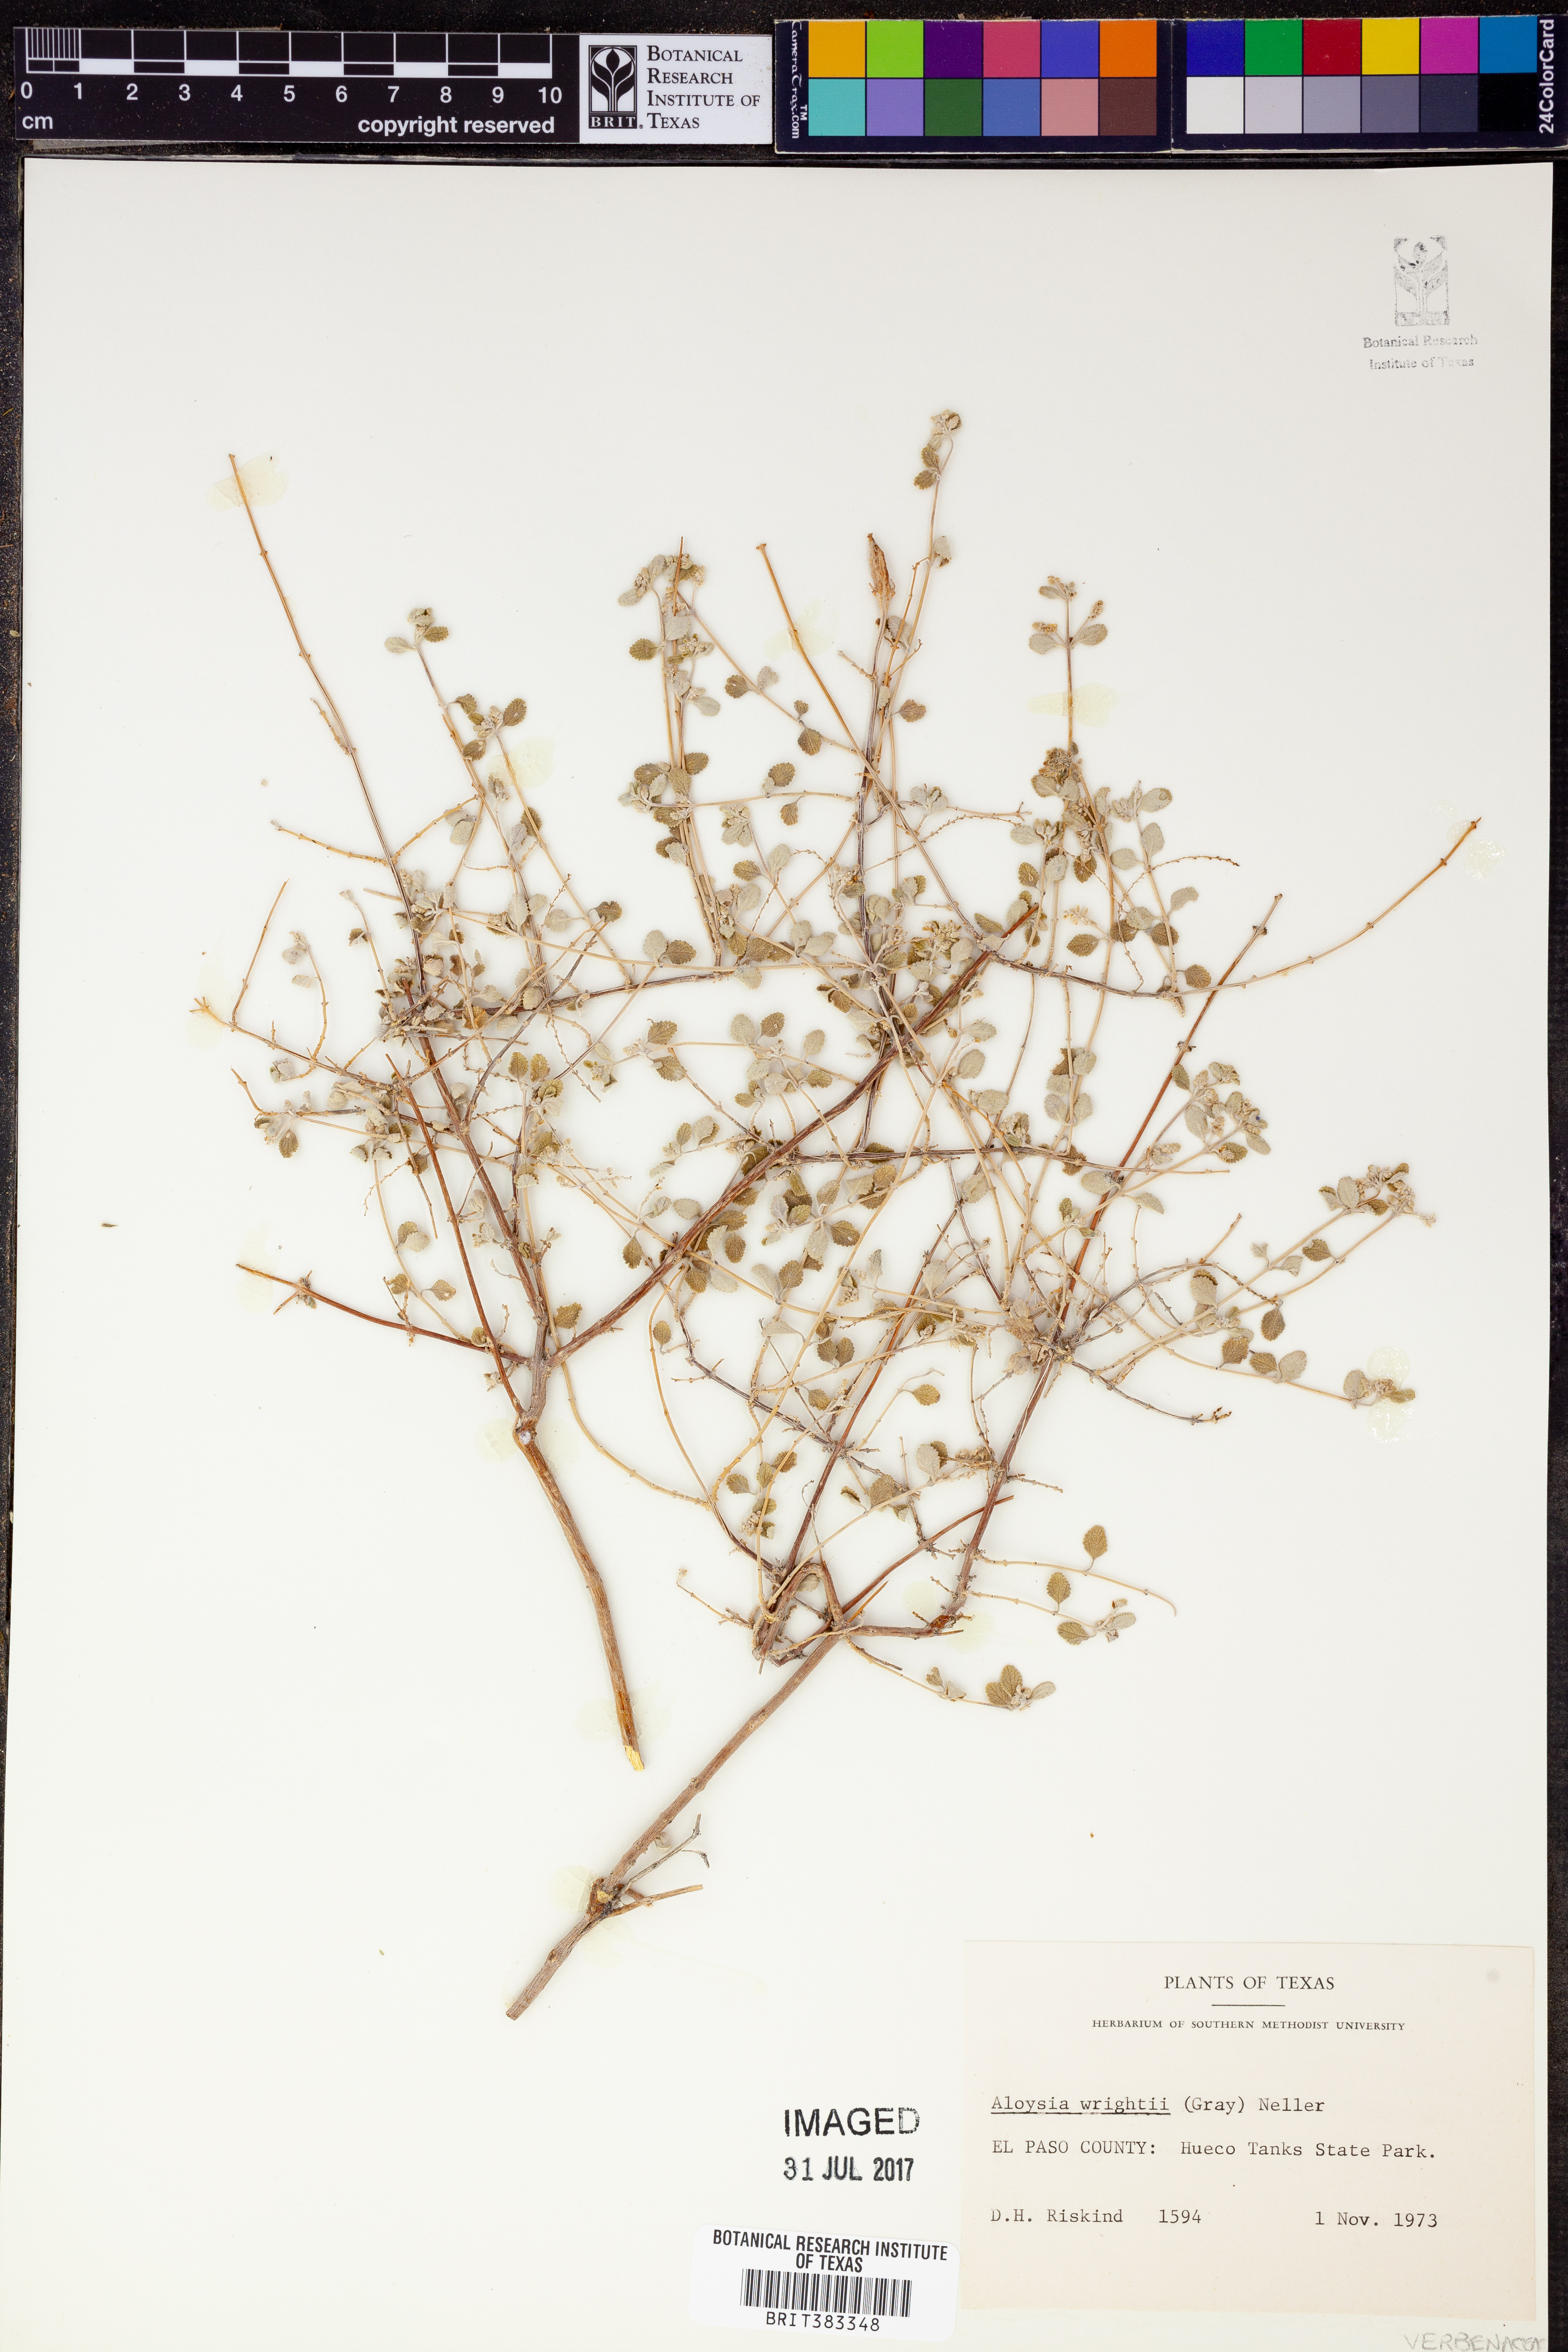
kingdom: Plantae
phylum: Tracheophyta
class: Magnoliopsida
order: Lamiales
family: Verbenaceae
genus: Aloysia
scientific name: Aloysia wrightii
